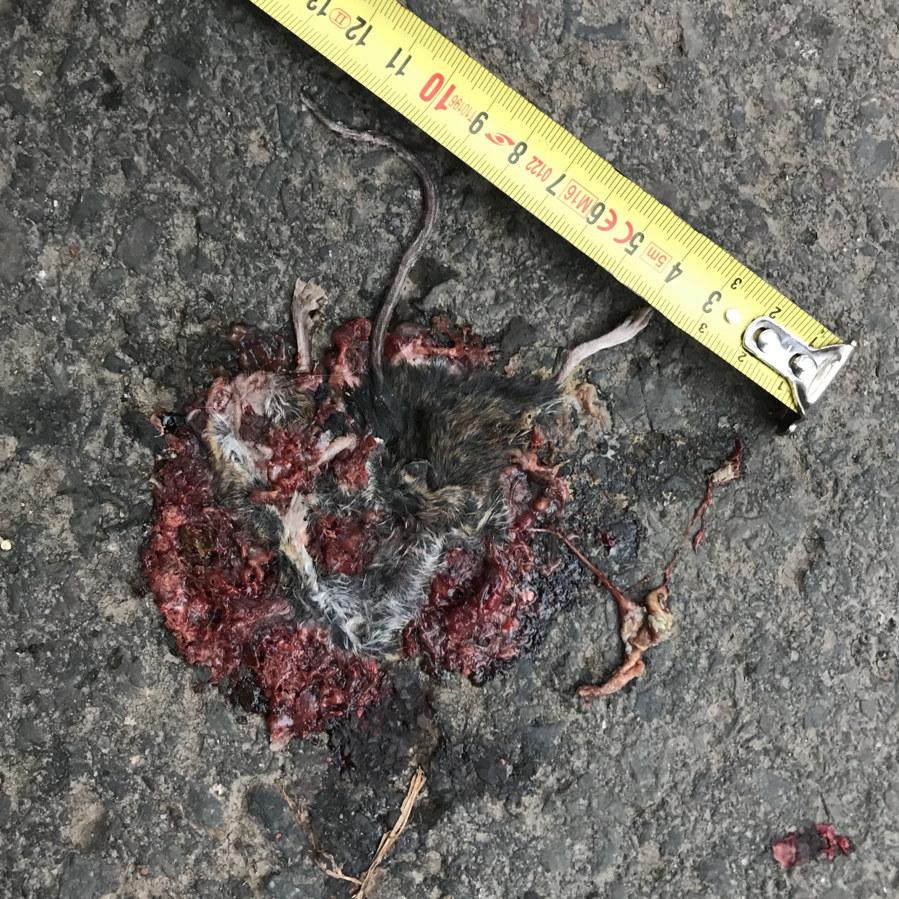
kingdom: Animalia
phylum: Chordata
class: Mammalia
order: Rodentia
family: Muridae
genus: Apodemus
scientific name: Apodemus
